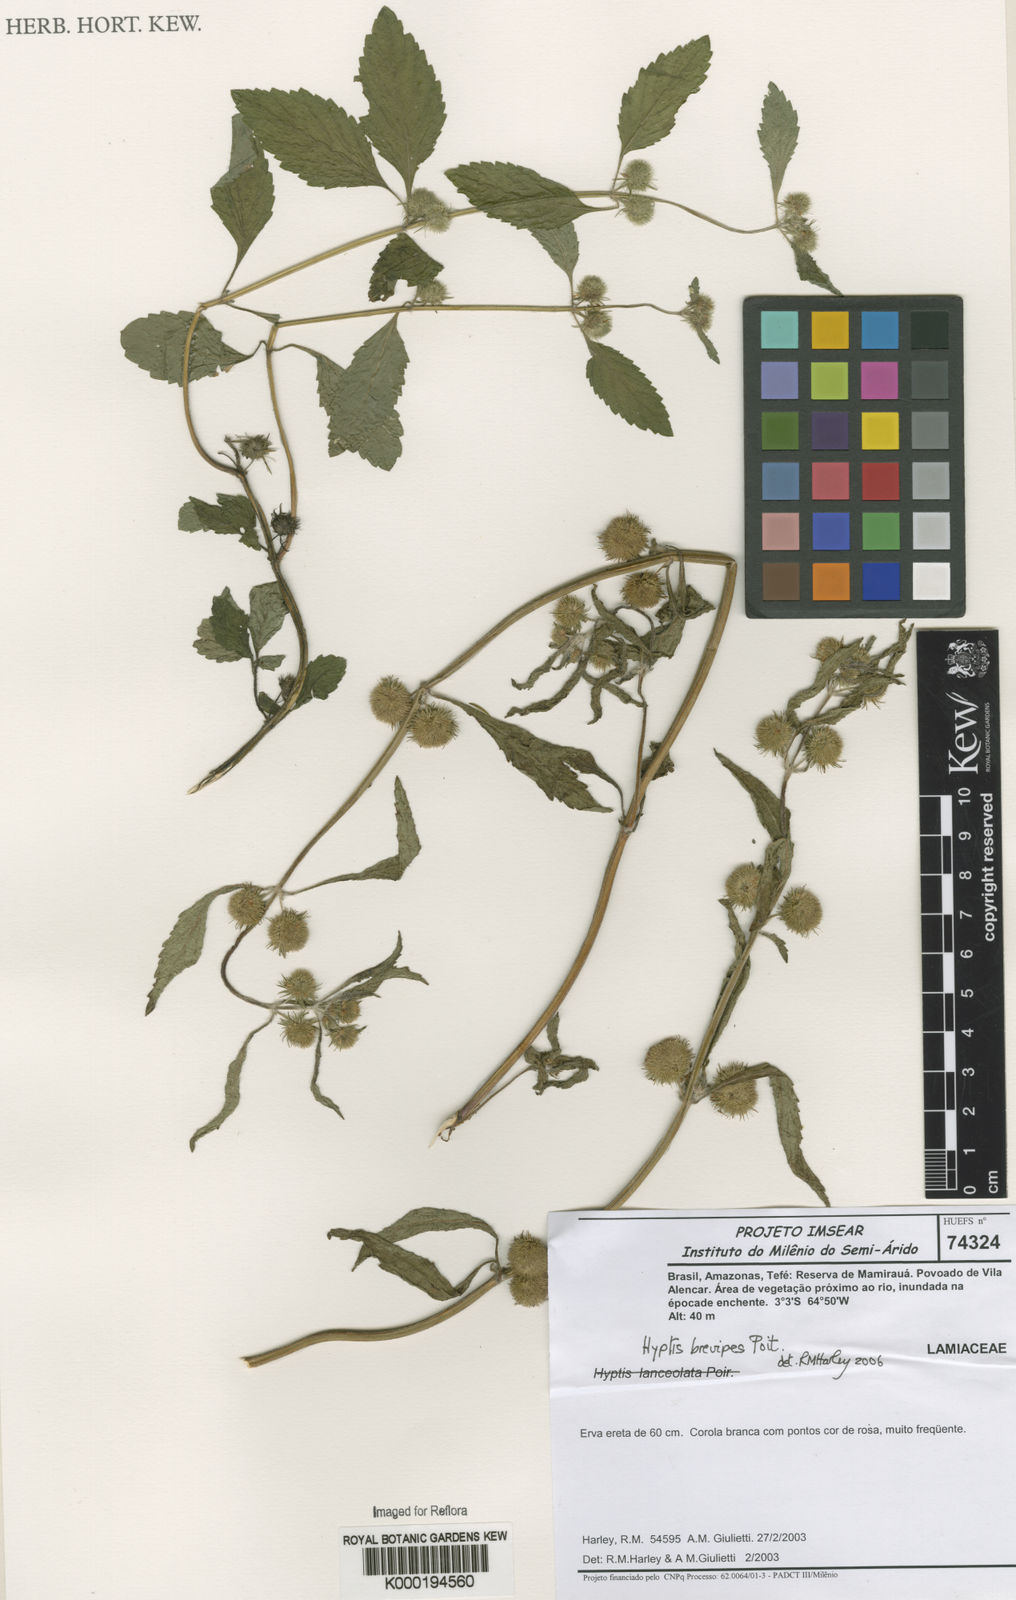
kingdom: Plantae
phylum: Tracheophyta
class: Magnoliopsida
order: Lamiales
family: Lamiaceae
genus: Hyptis
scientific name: Hyptis brevipes
